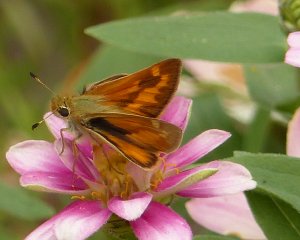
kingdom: Animalia
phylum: Arthropoda
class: Insecta
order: Lepidoptera
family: Hesperiidae
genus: Ochlodes
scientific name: Ochlodes sylvanoides
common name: Woodland Skipper
